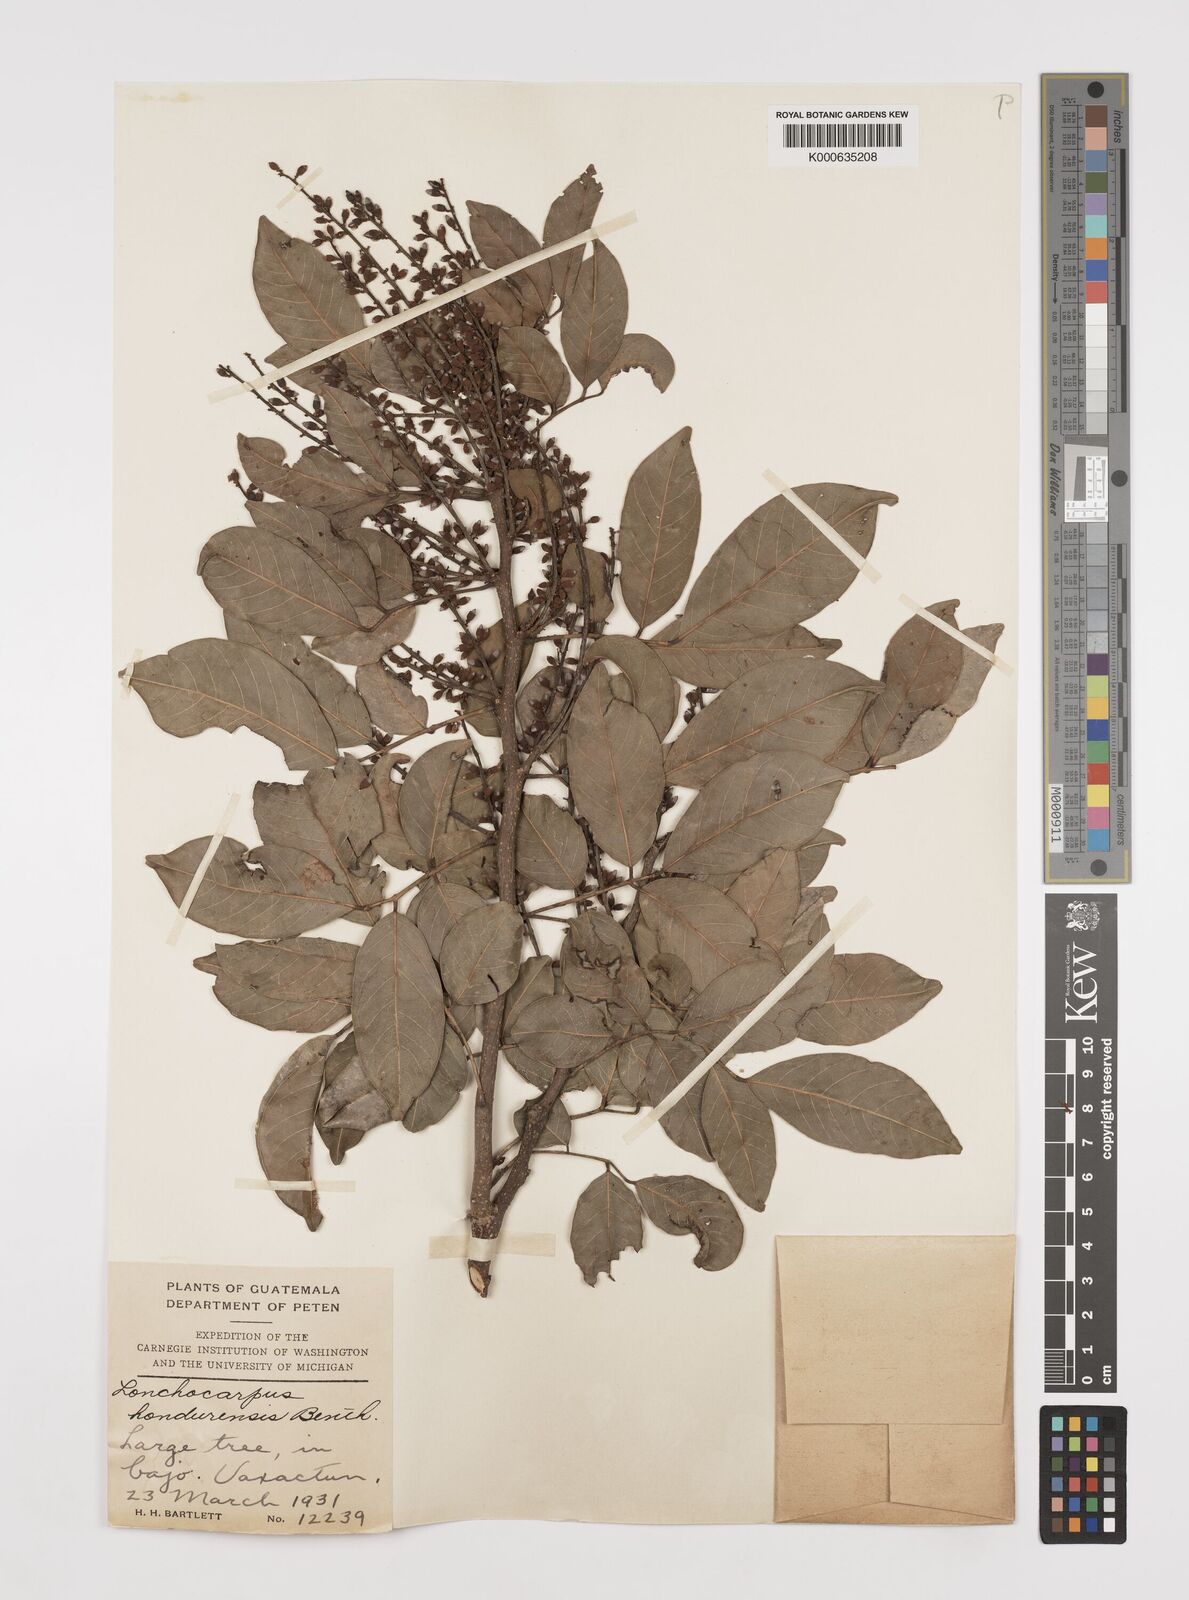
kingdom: Plantae
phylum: Tracheophyta
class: Magnoliopsida
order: Fabales
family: Fabaceae
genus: Lonchocarpus
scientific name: Lonchocarpus hondurensis
